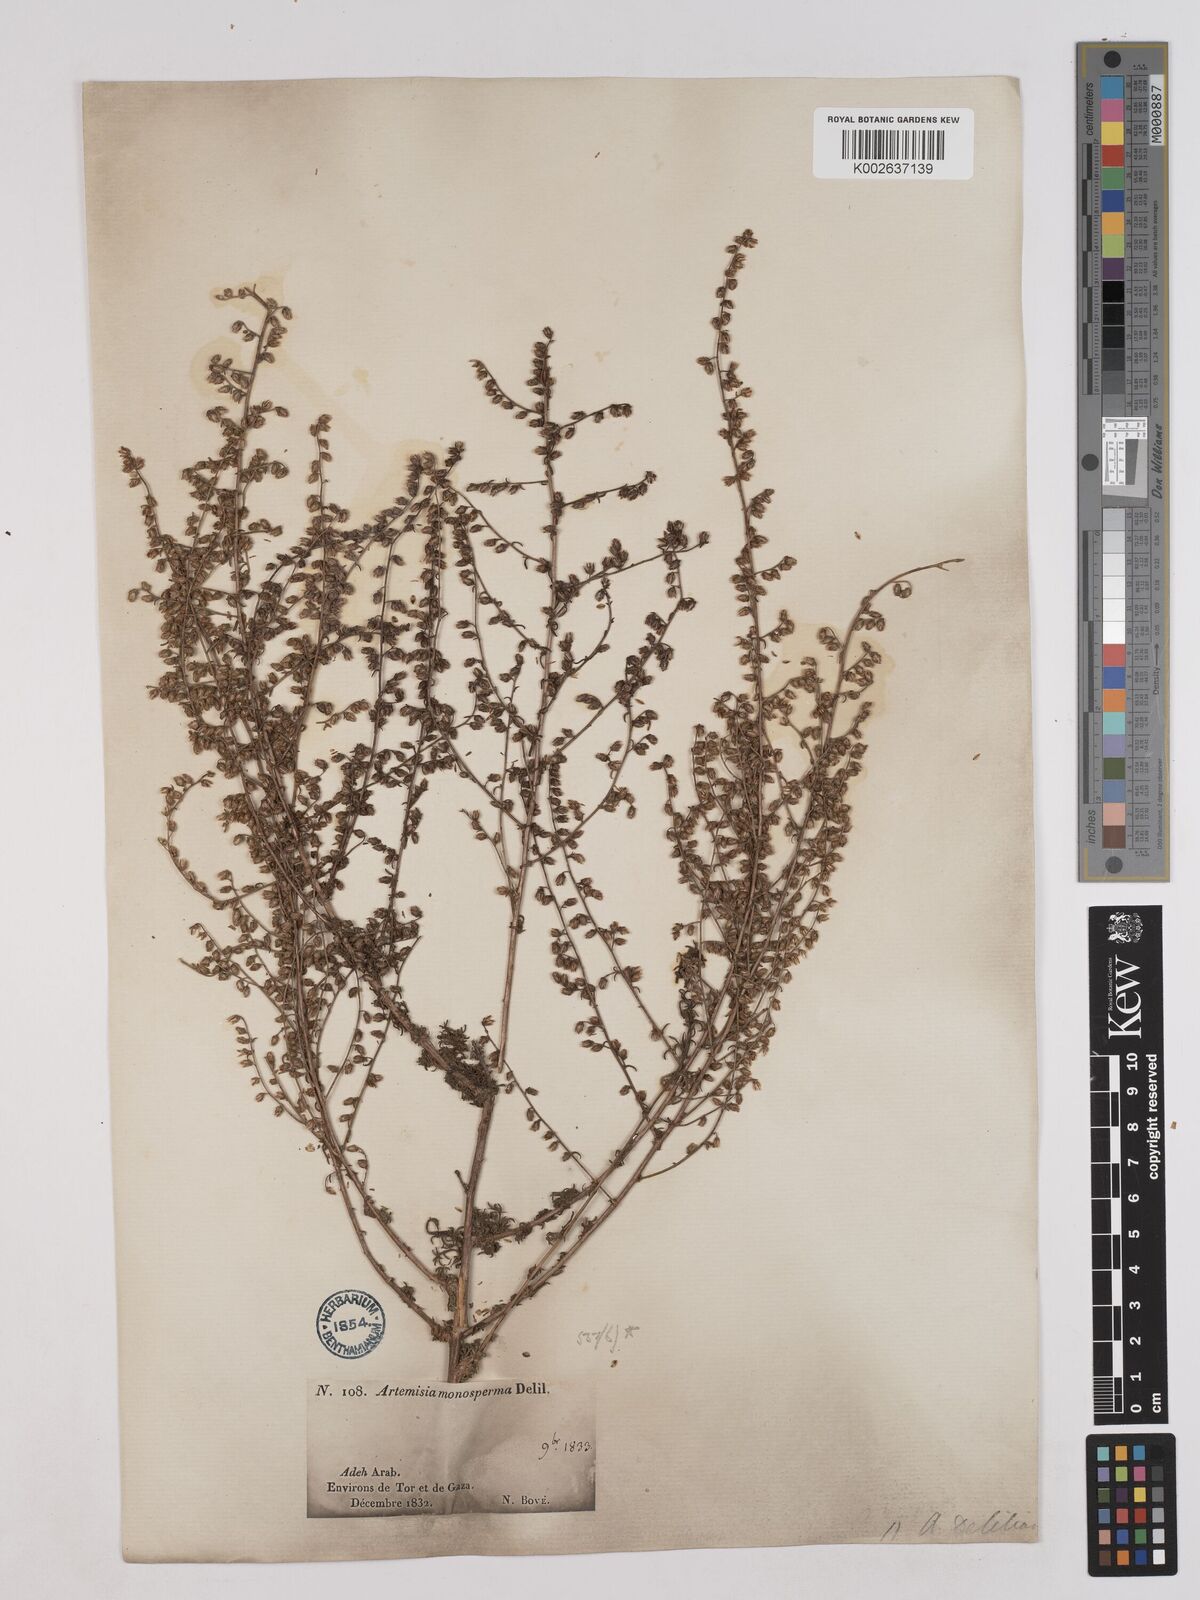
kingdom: Plantae
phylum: Tracheophyta
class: Magnoliopsida
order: Asterales
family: Asteraceae
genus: Artemisia
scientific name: Artemisia monosperma
